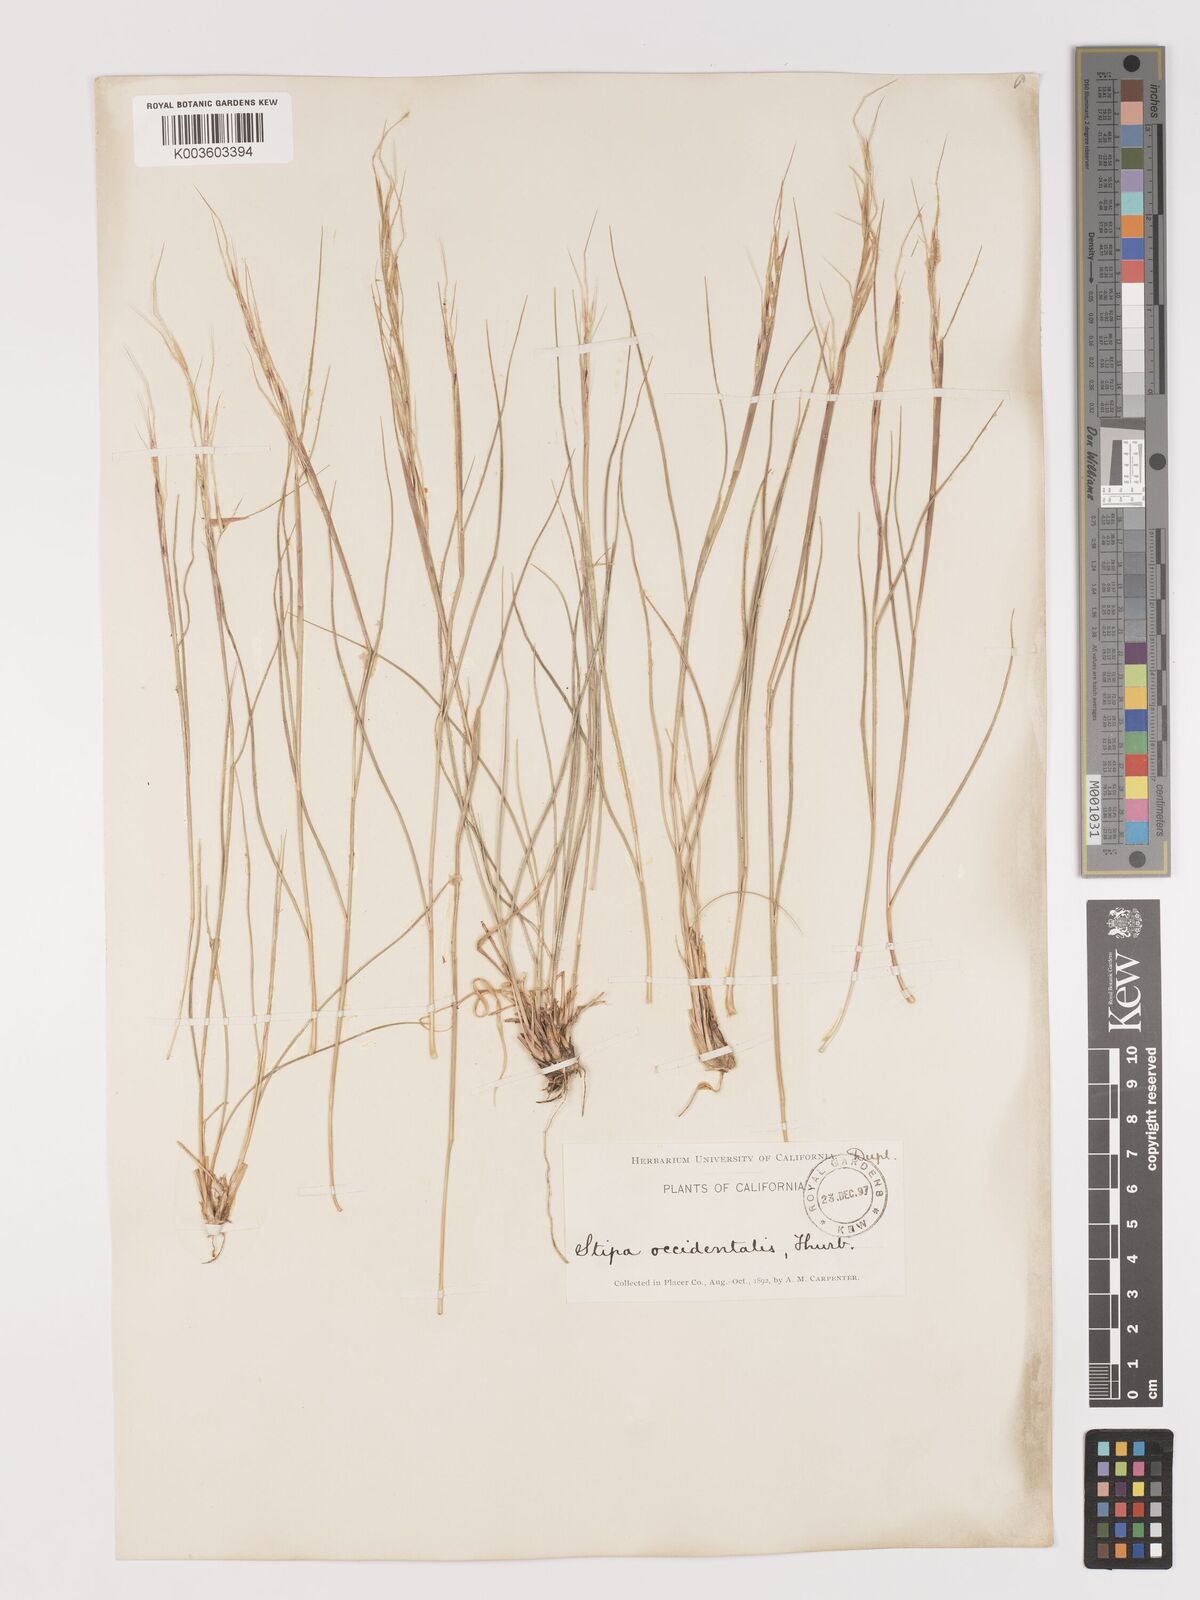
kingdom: Plantae
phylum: Tracheophyta
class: Liliopsida
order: Poales
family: Poaceae
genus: Eriocoma
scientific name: Eriocoma thurberiana
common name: Thurber's needlegrass
